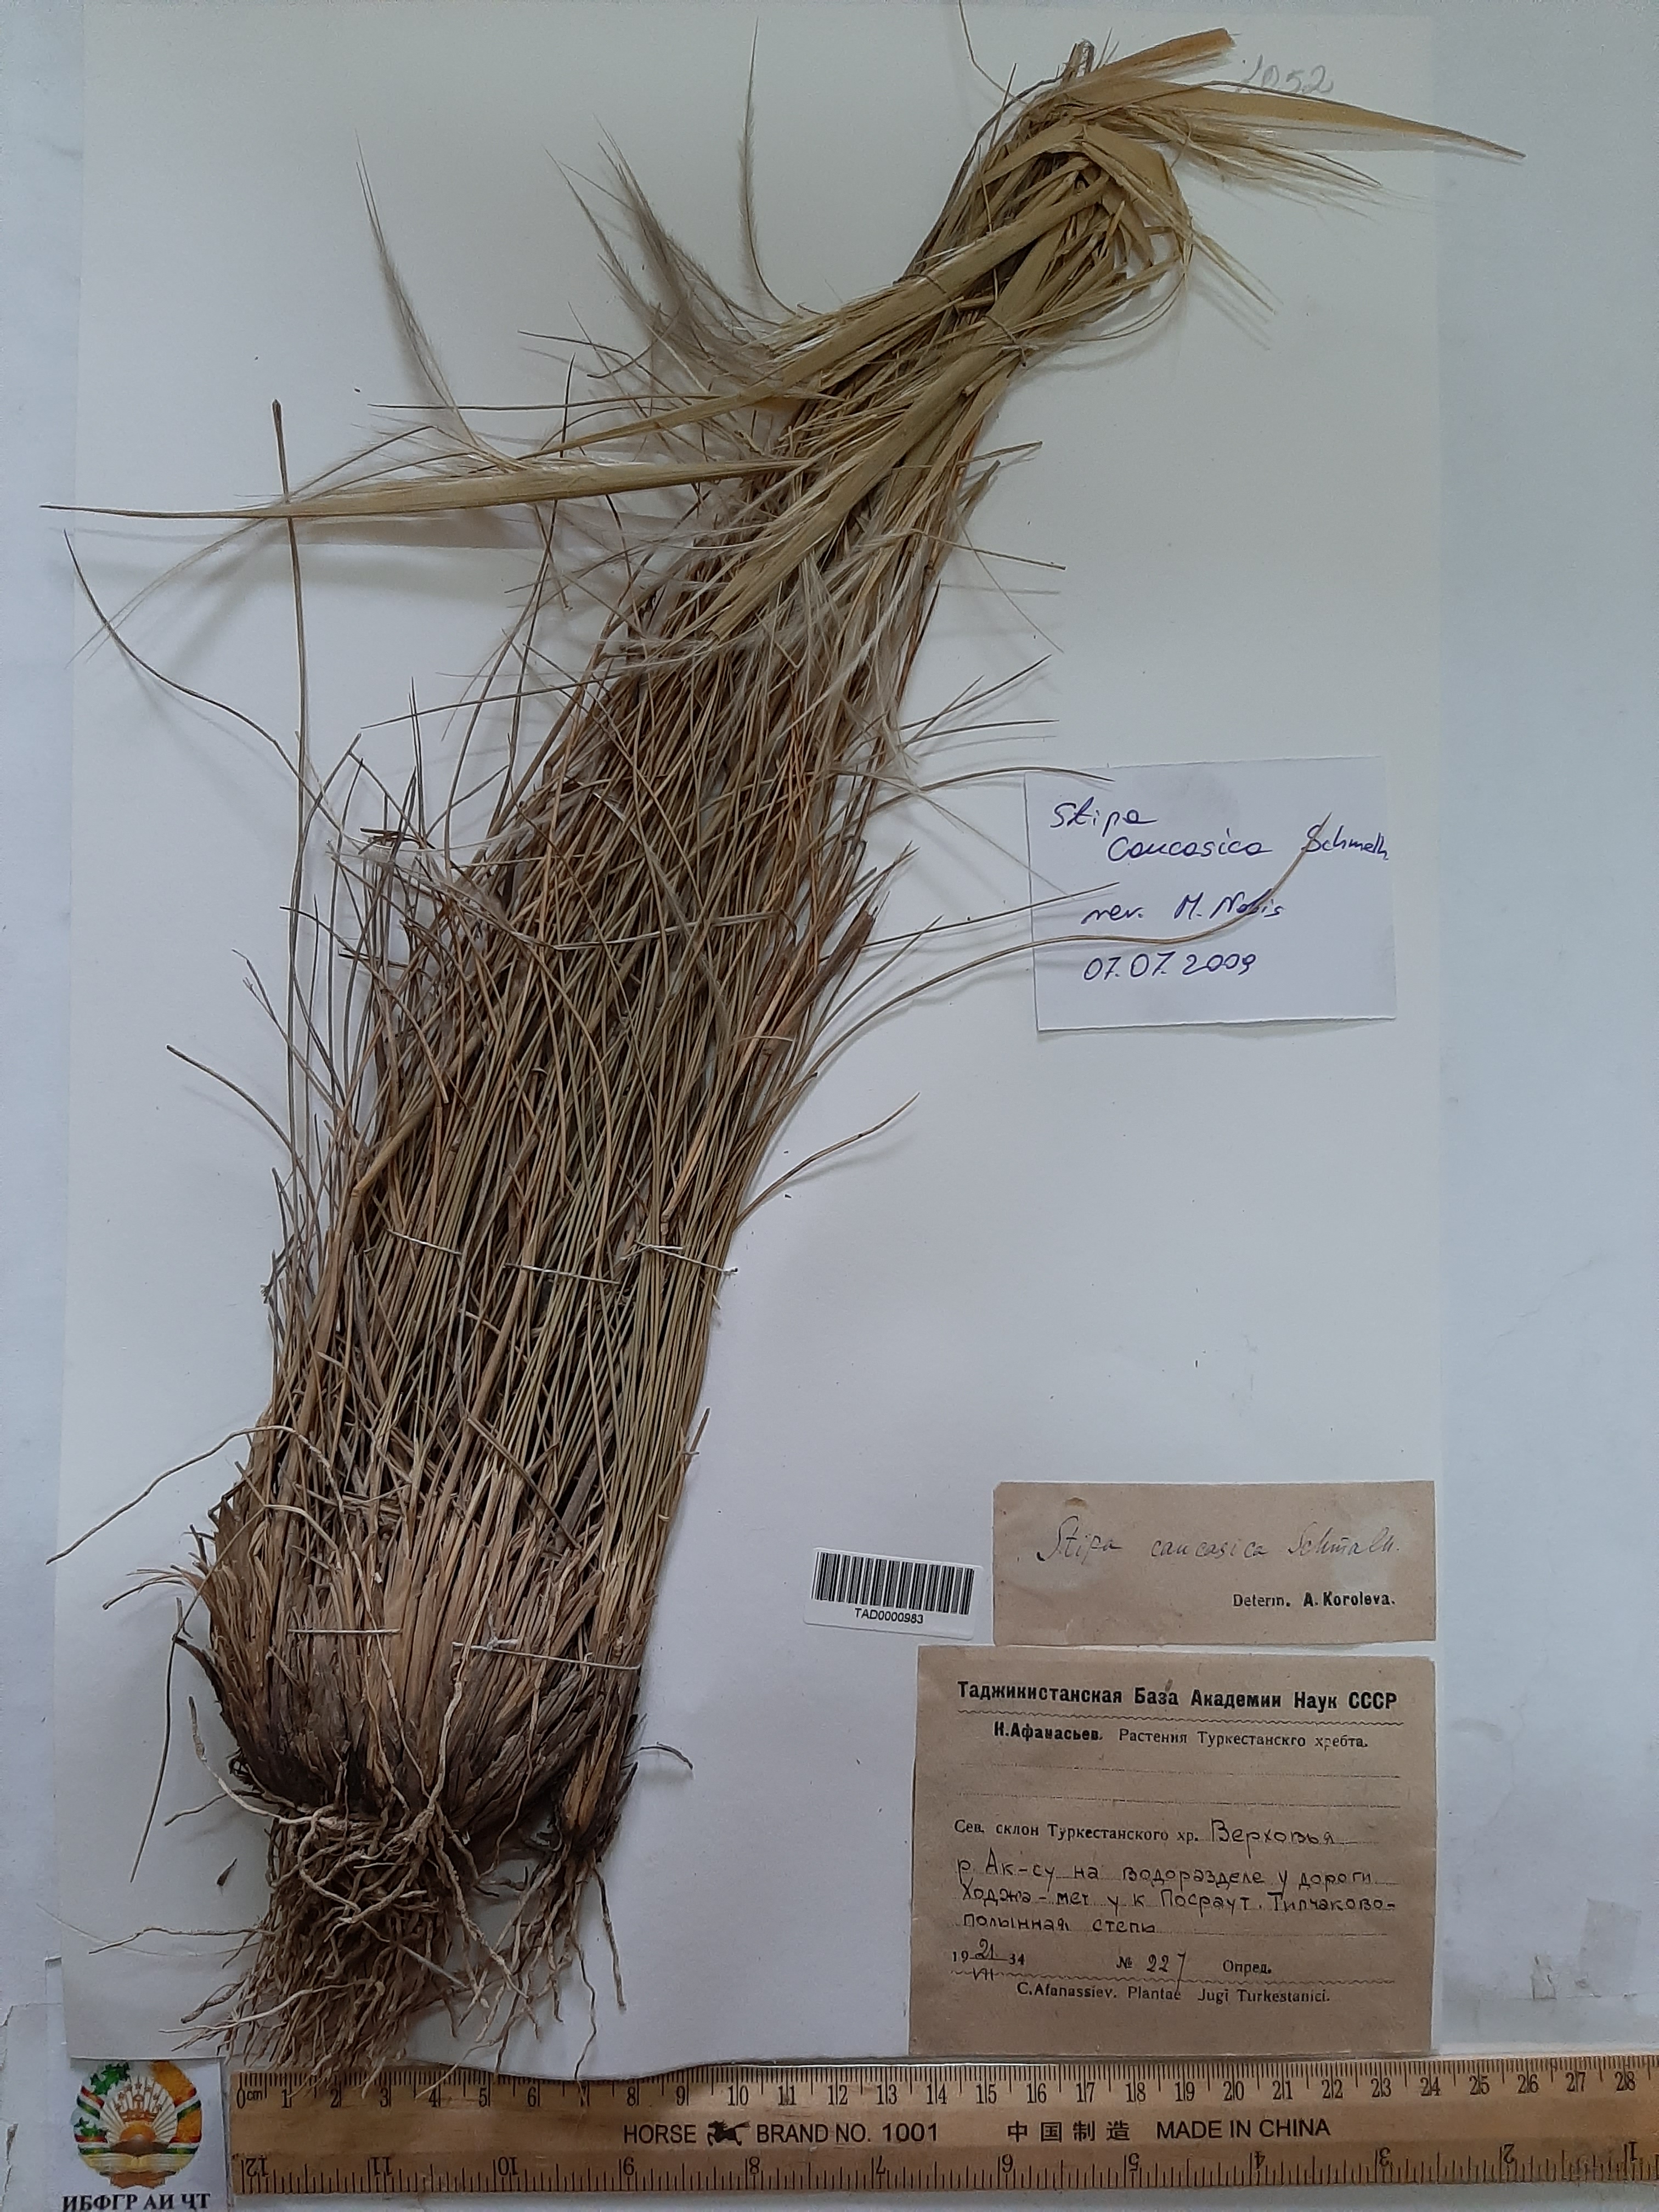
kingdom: Plantae
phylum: Tracheophyta
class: Liliopsida
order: Poales
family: Poaceae
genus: Stipa
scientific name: Stipa caucasica
